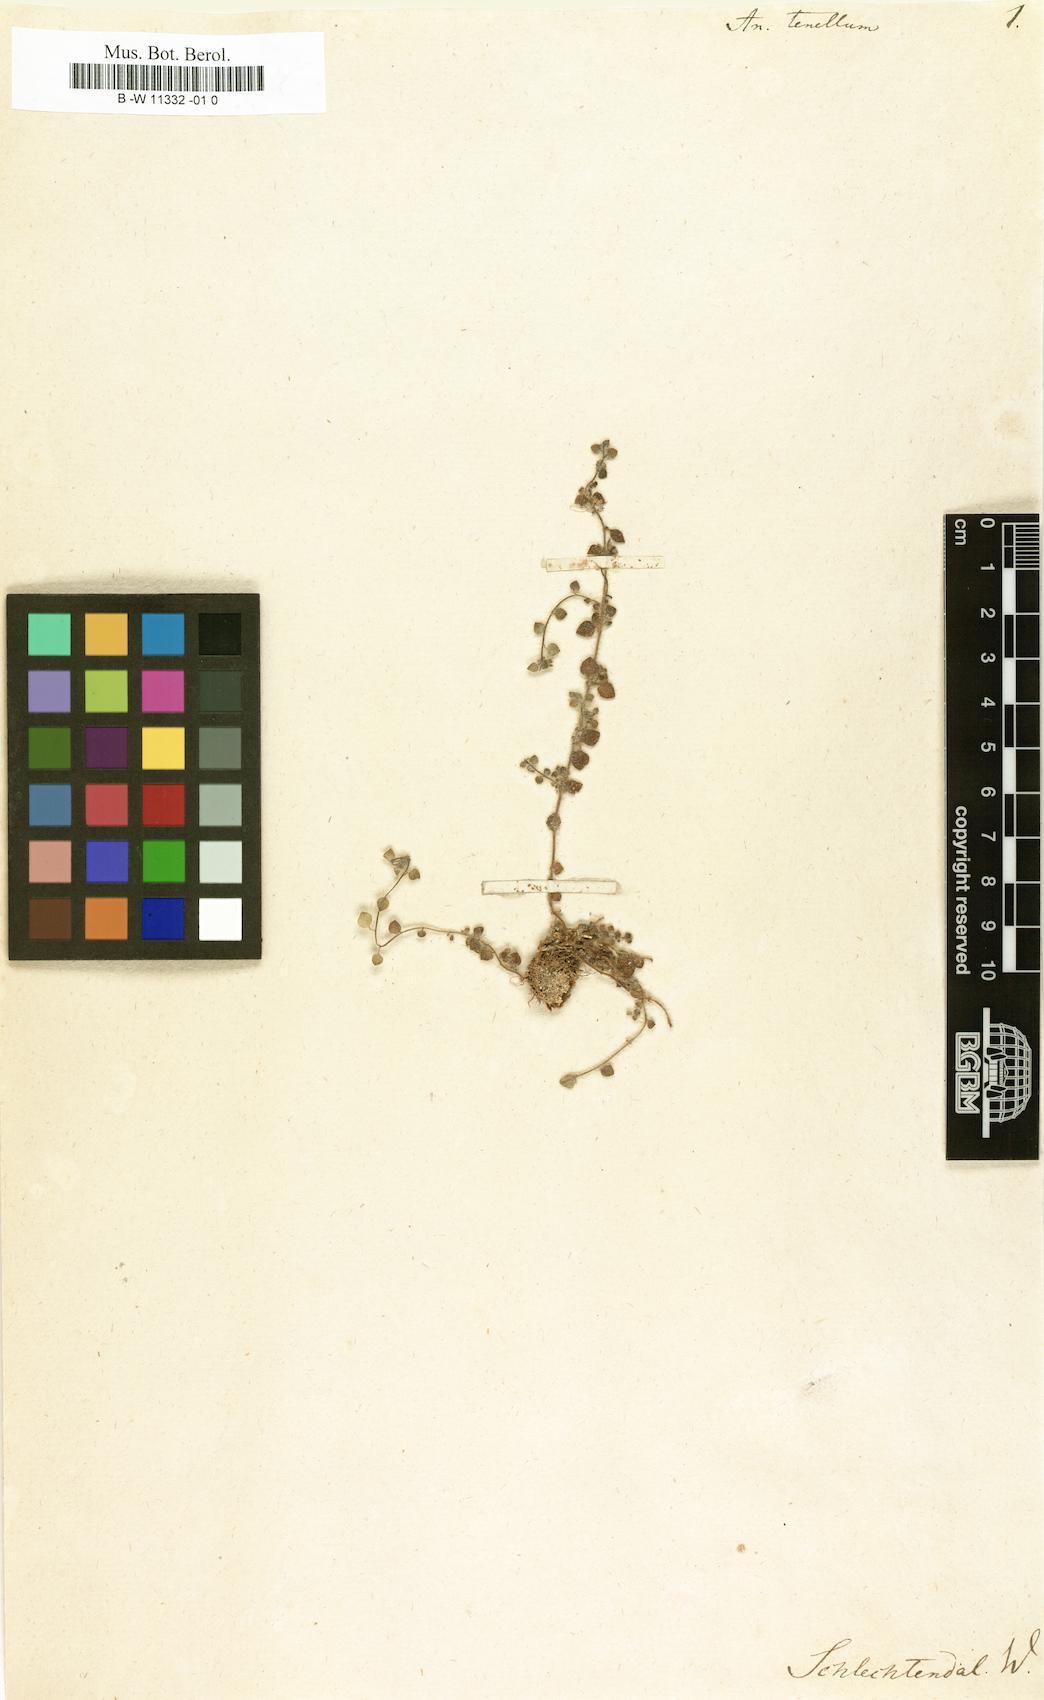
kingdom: Plantae
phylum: Tracheophyta
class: Magnoliopsida
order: Lamiales
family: Plantaginaceae
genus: Chaenorhinum
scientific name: Chaenorhinum tenellum
